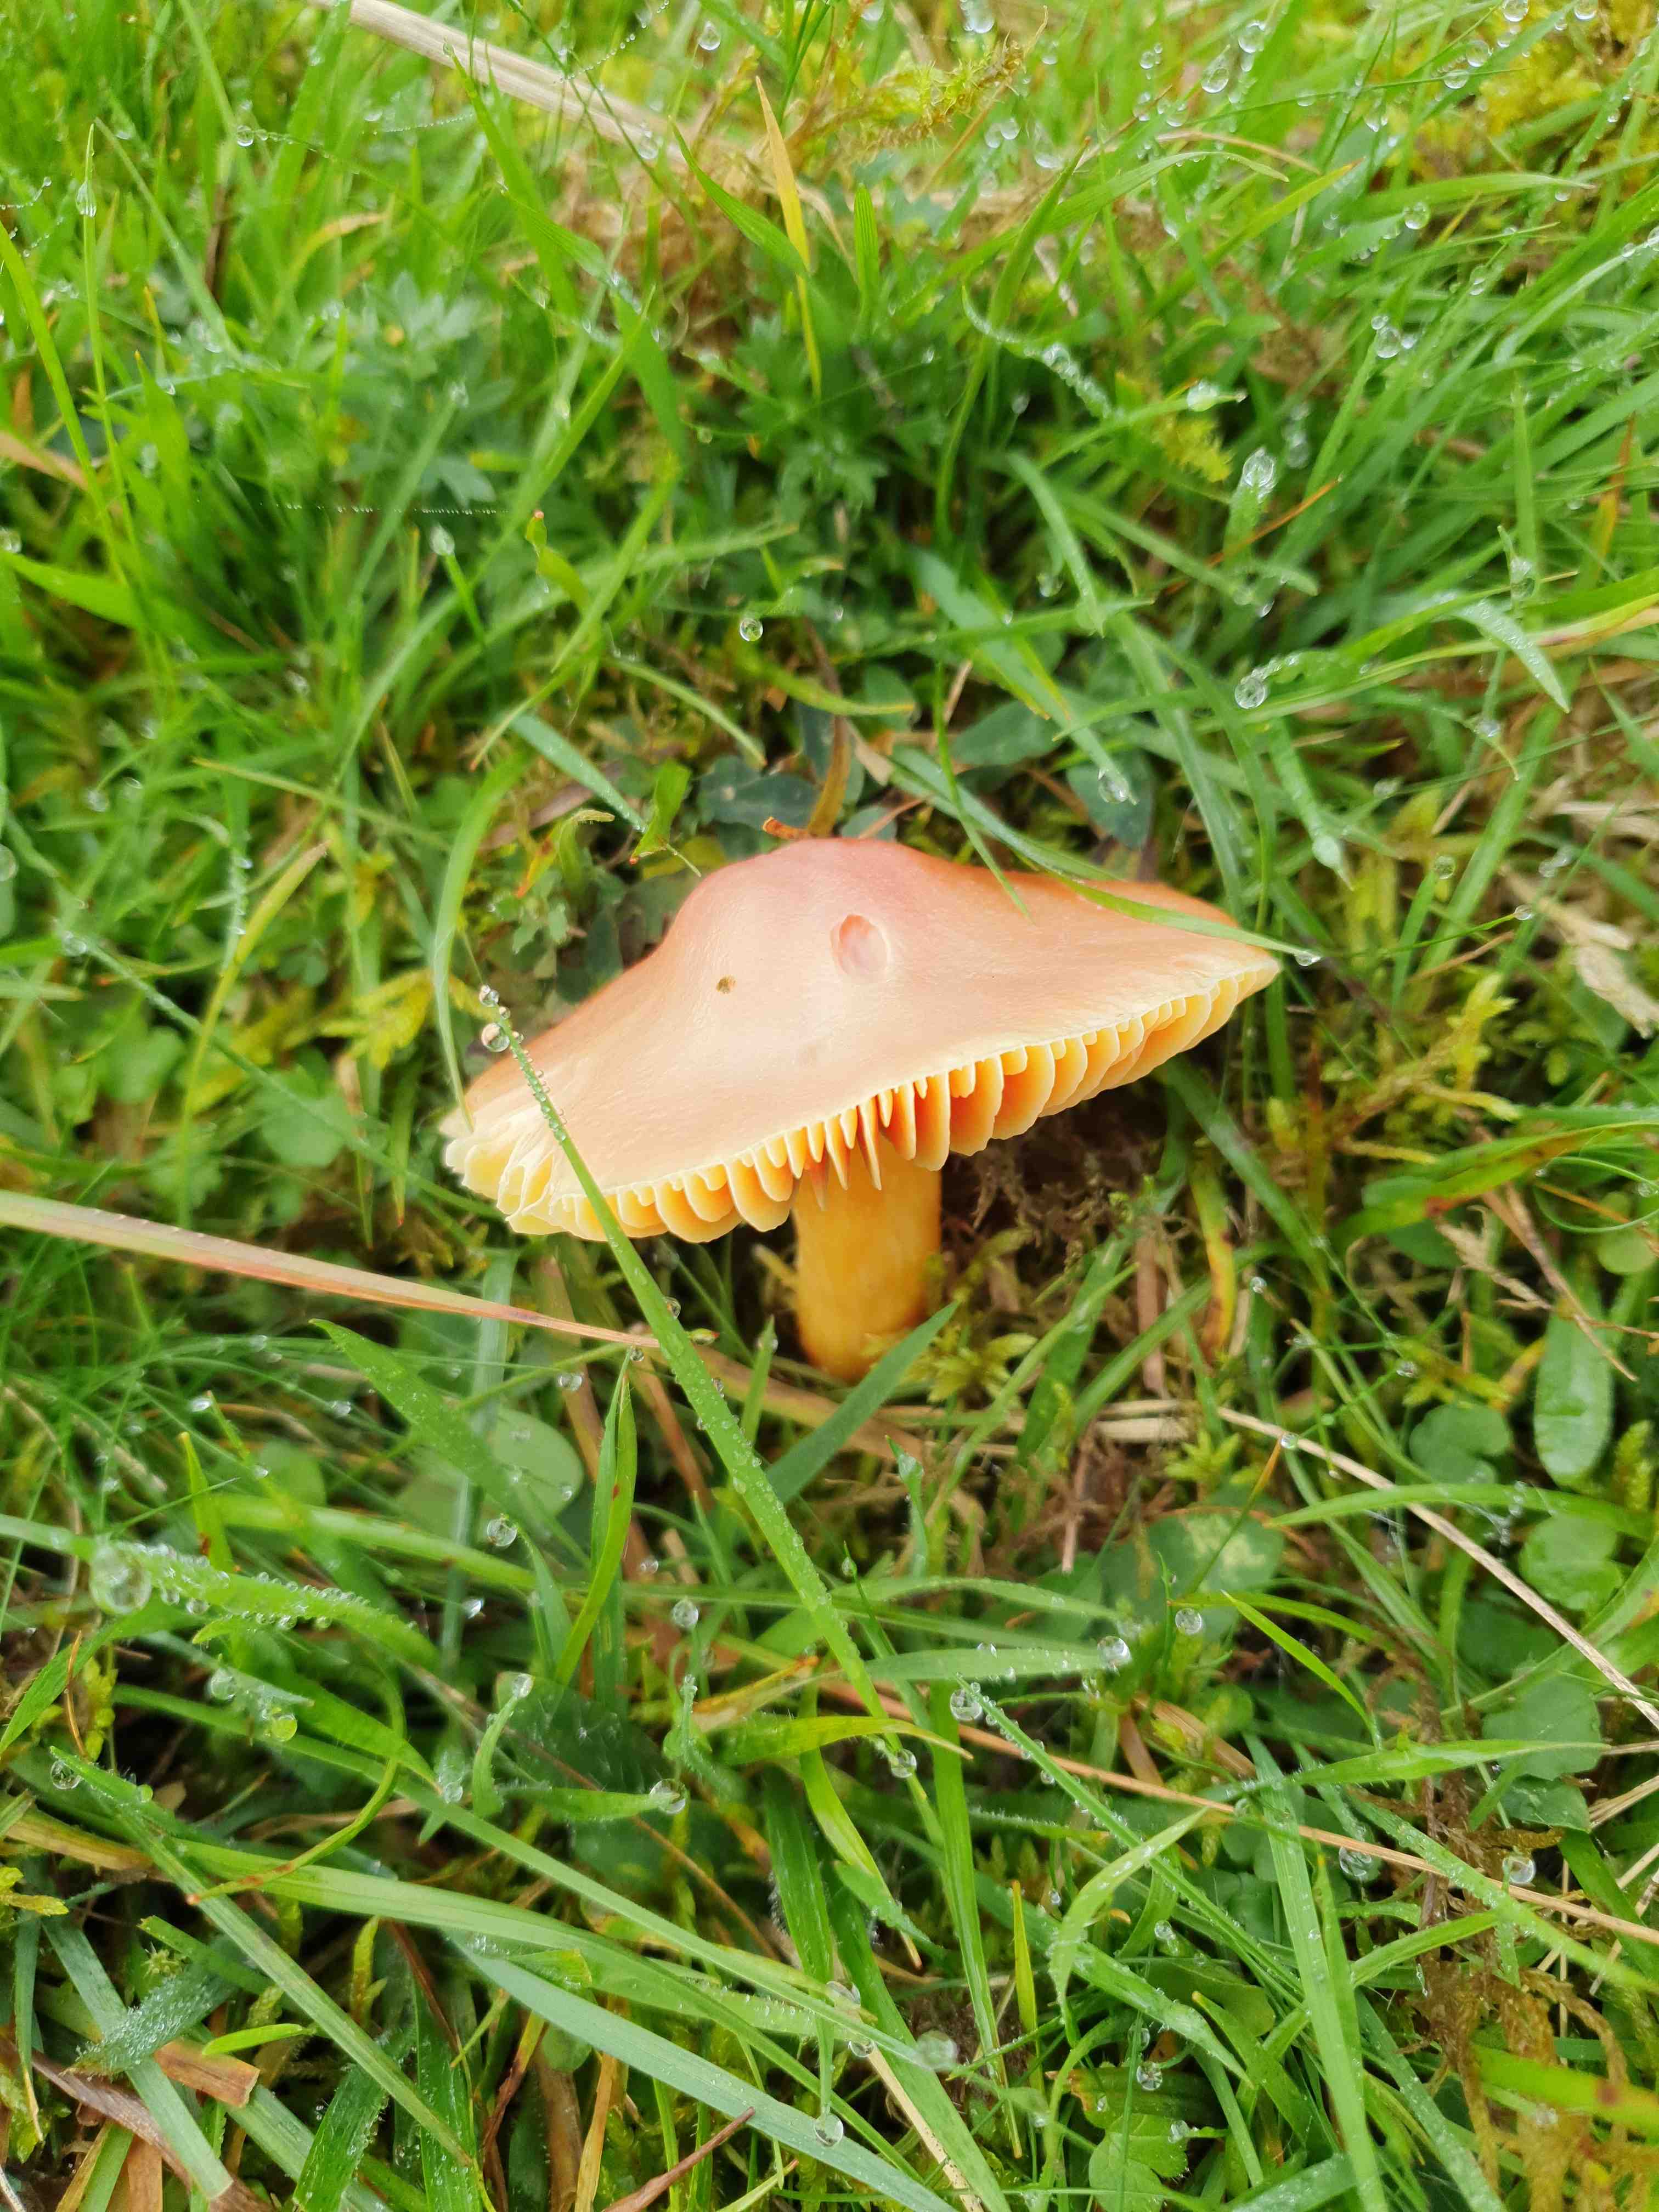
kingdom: Fungi
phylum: Basidiomycota
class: Agaricomycetes
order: Agaricales
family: Hygrophoraceae
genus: Hygrocybe
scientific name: Hygrocybe punicea
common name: skarlagen-vokshat
